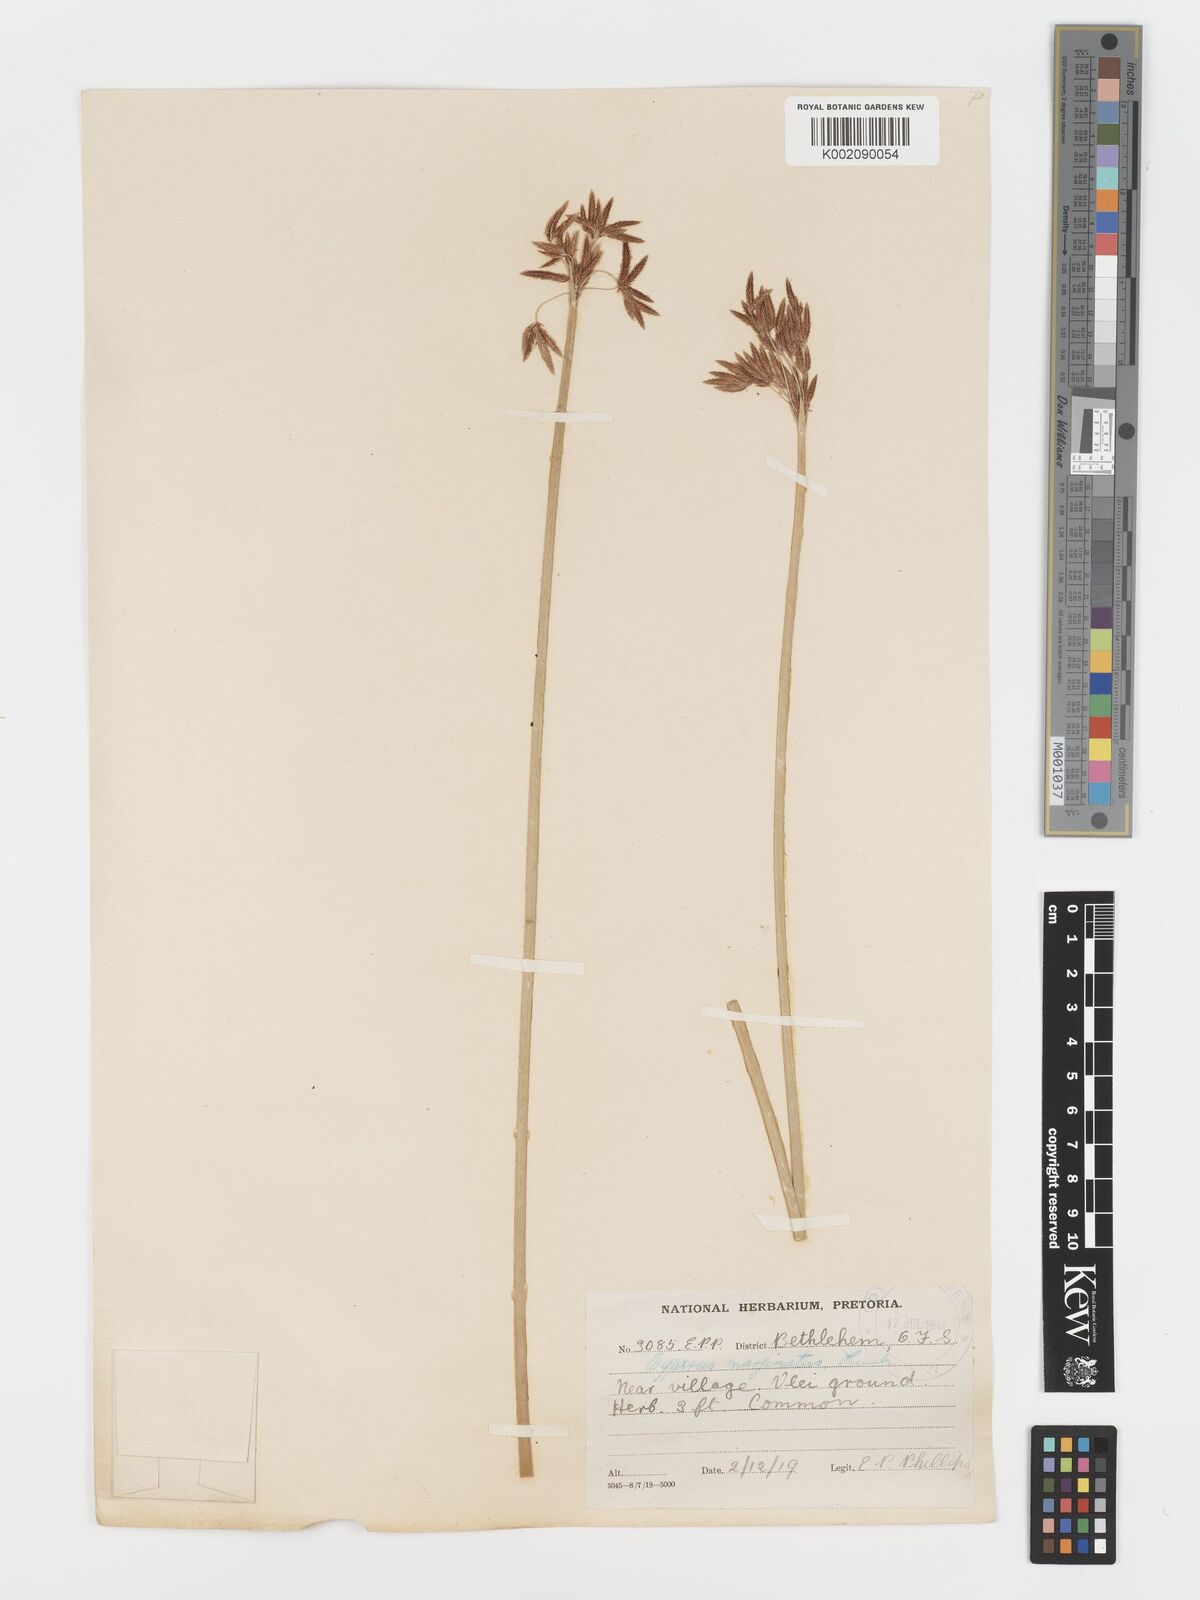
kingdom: Plantae
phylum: Tracheophyta
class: Liliopsida
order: Poales
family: Cyperaceae
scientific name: Cyperaceae
